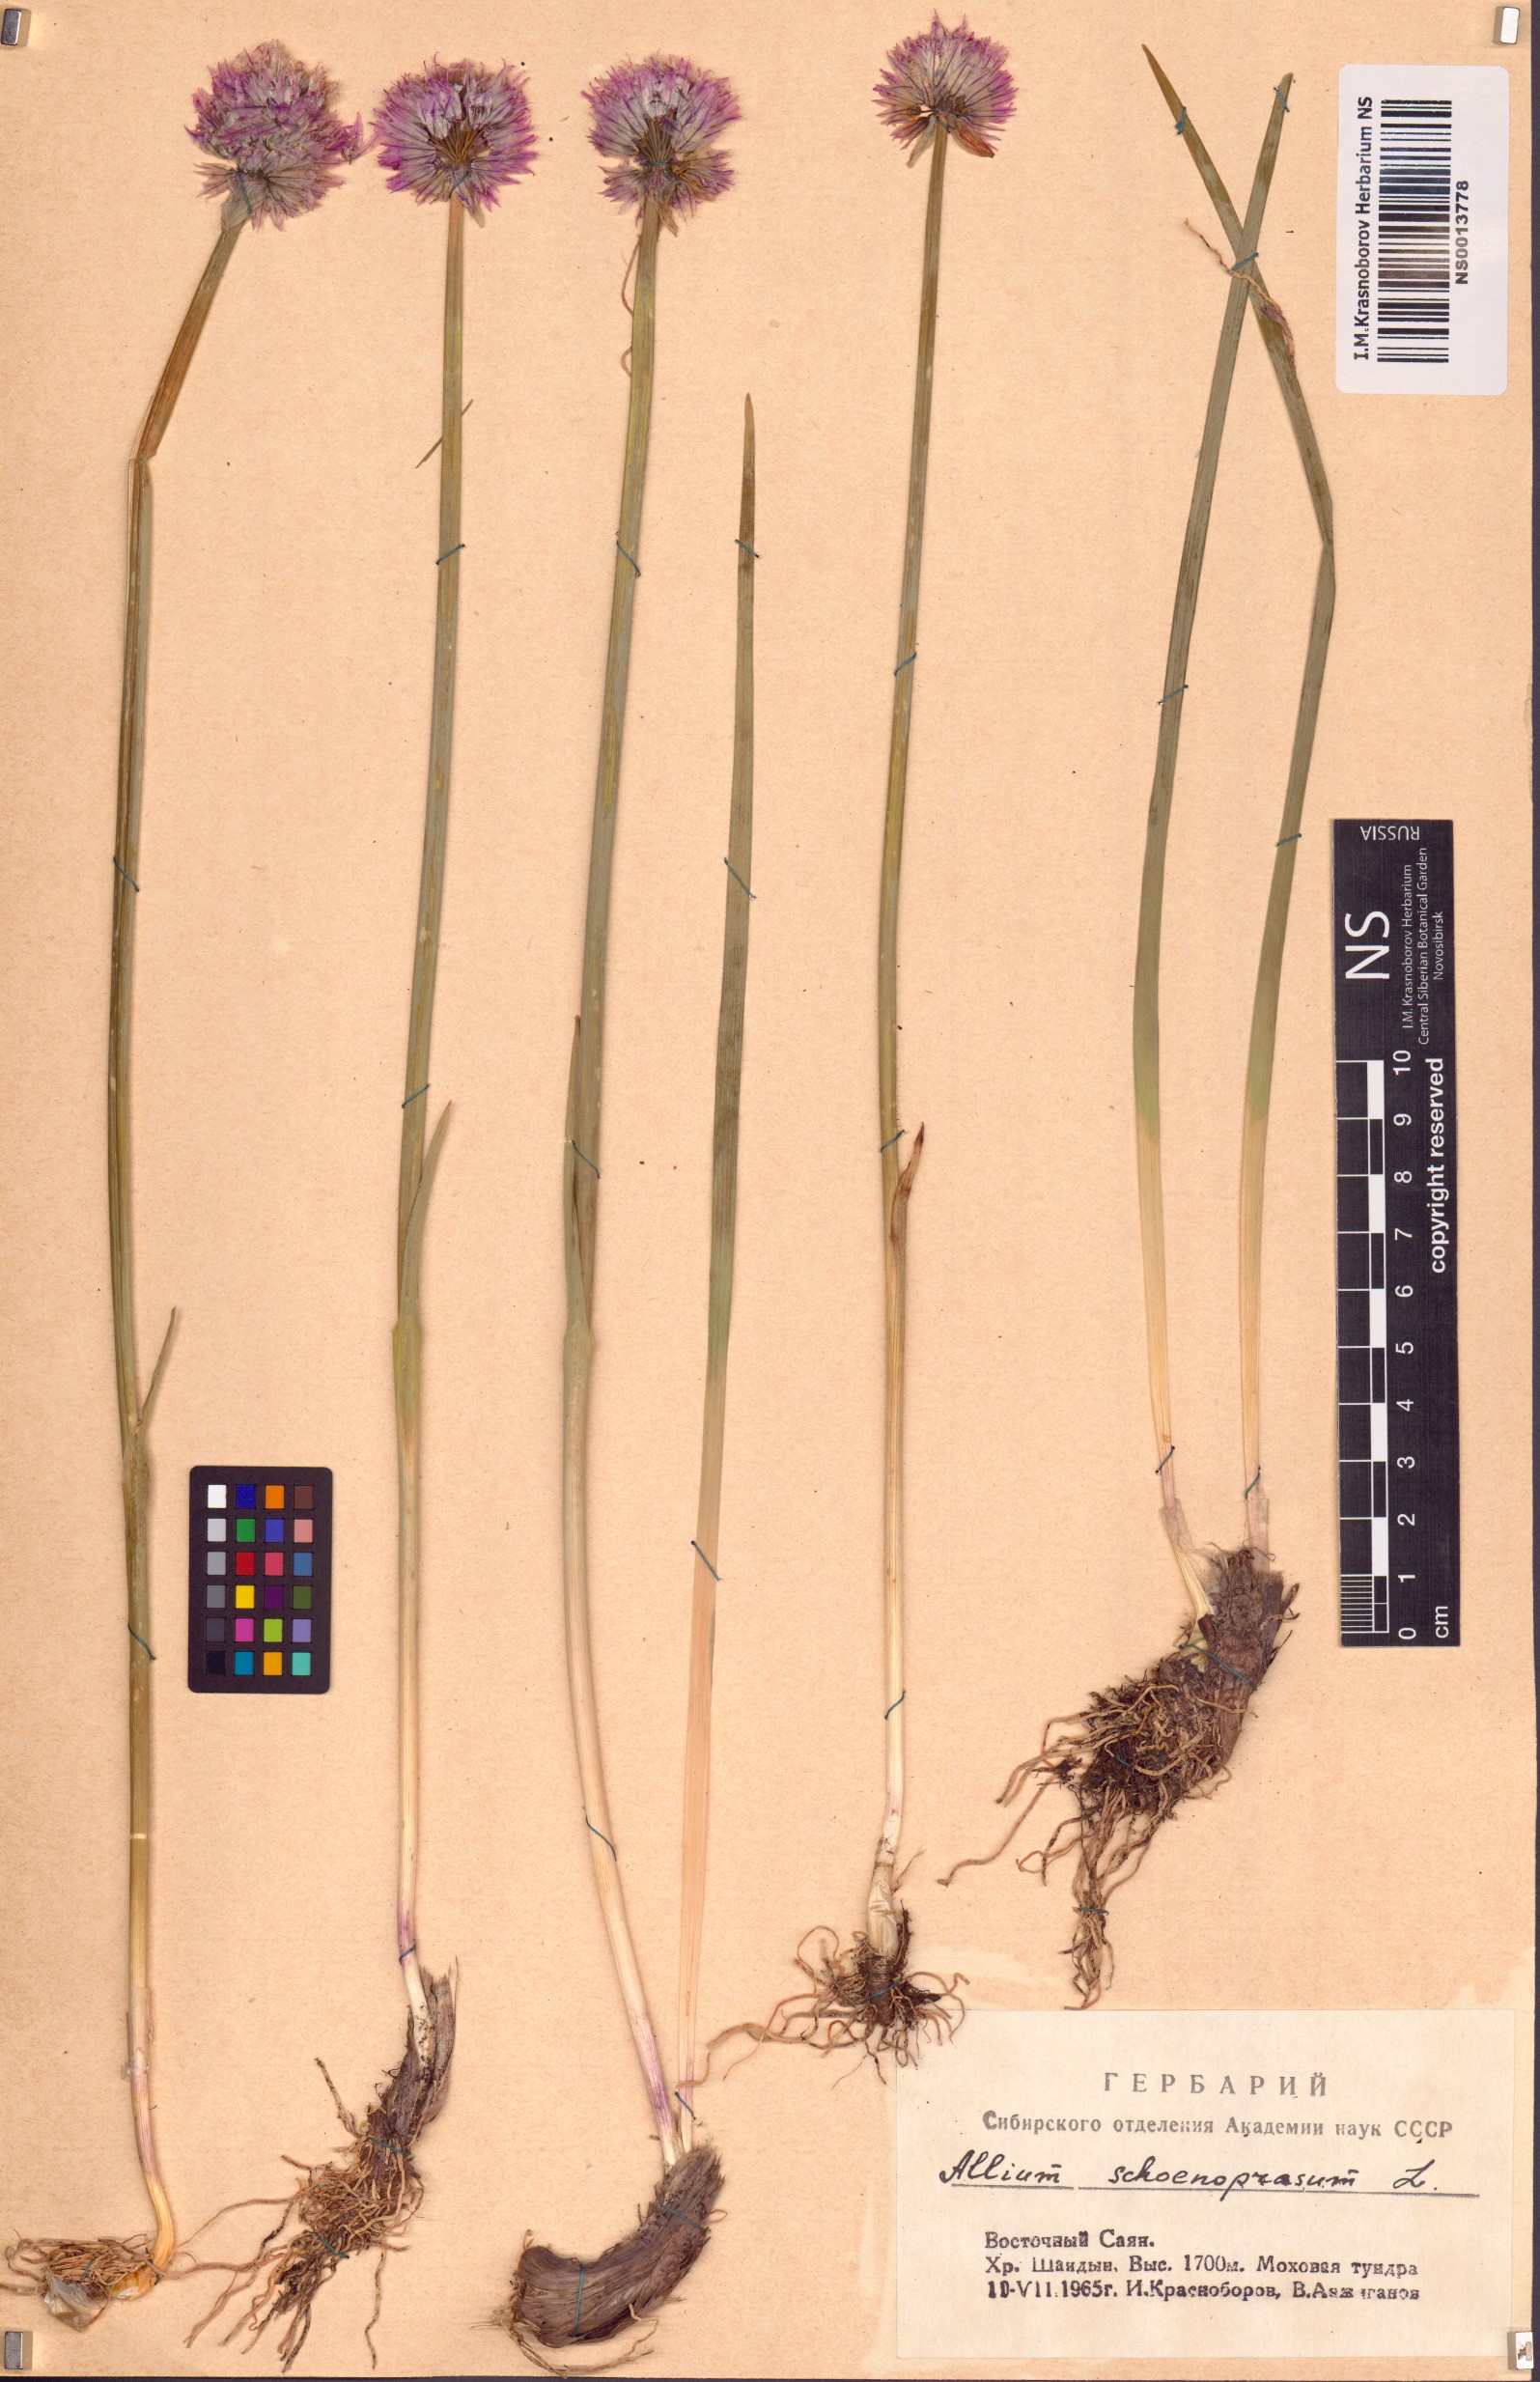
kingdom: Plantae
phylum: Tracheophyta
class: Liliopsida
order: Asparagales
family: Amaryllidaceae
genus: Allium
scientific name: Allium schoenoprasum
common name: Chives
